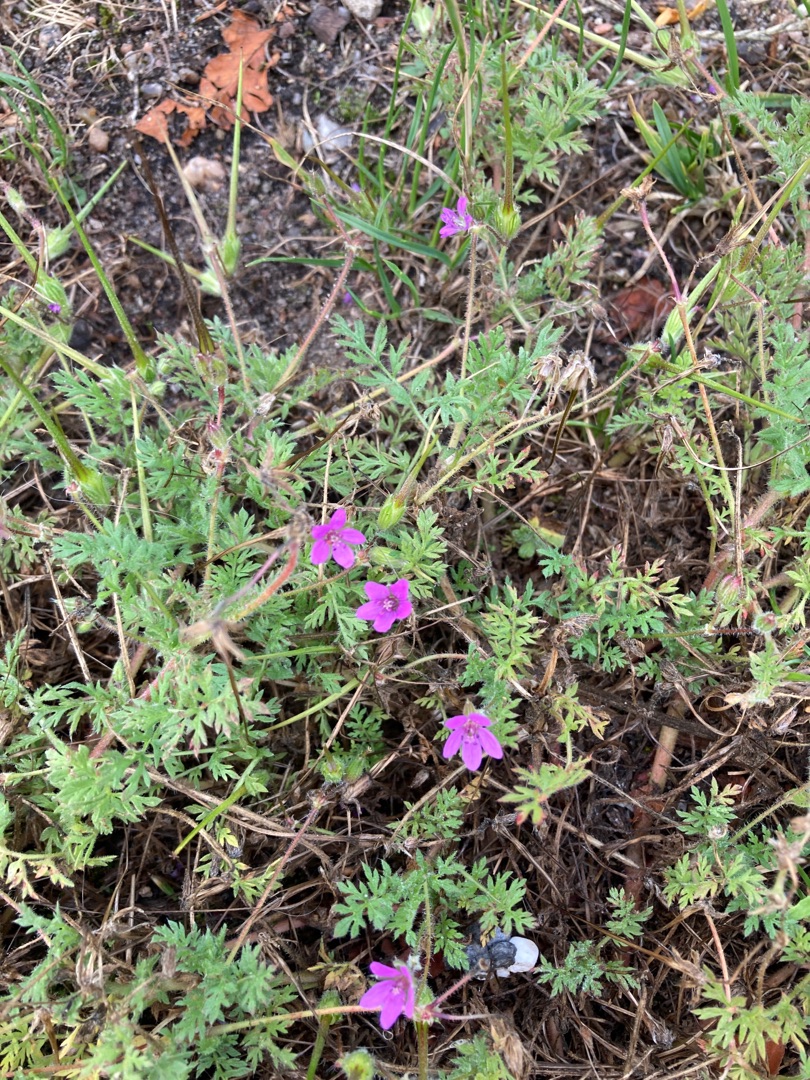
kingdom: Plantae
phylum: Tracheophyta
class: Magnoliopsida
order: Geraniales
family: Geraniaceae
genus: Erodium
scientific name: Erodium cicutarium
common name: Hejrenæb
